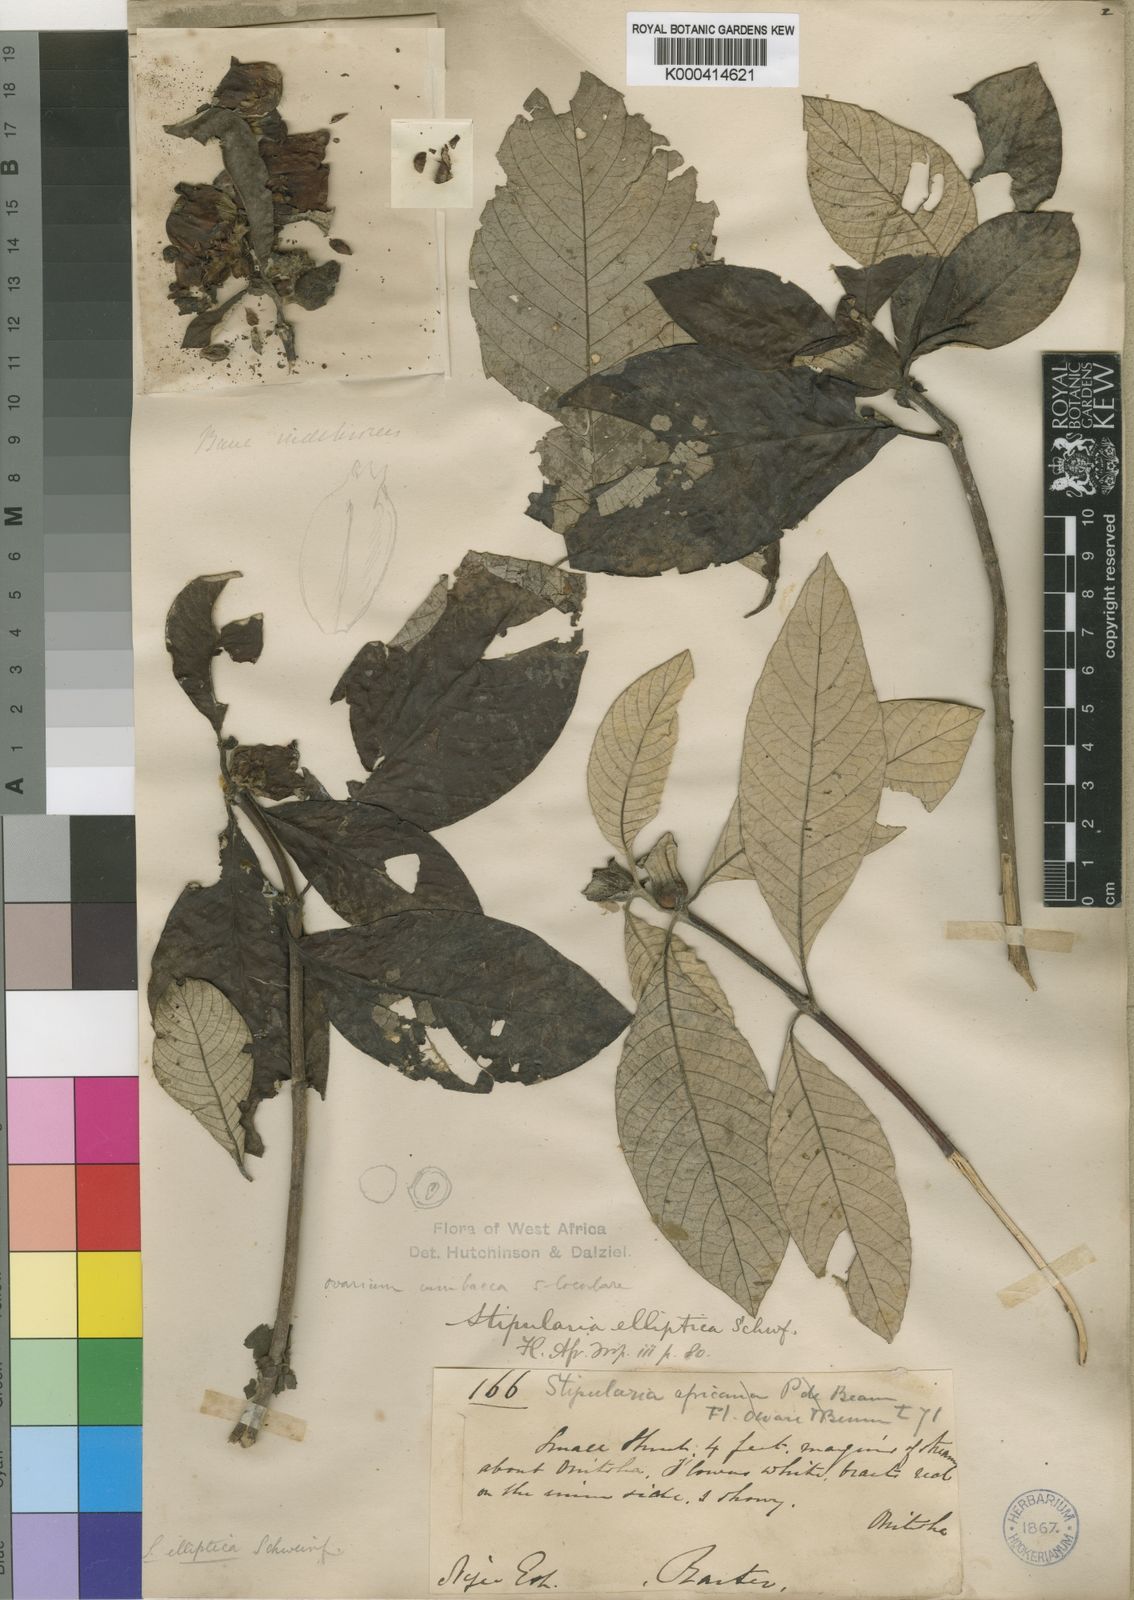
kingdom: Plantae
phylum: Tracheophyta
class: Magnoliopsida
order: Gentianales
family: Rubiaceae
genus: Stipularia
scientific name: Stipularia elliptica
